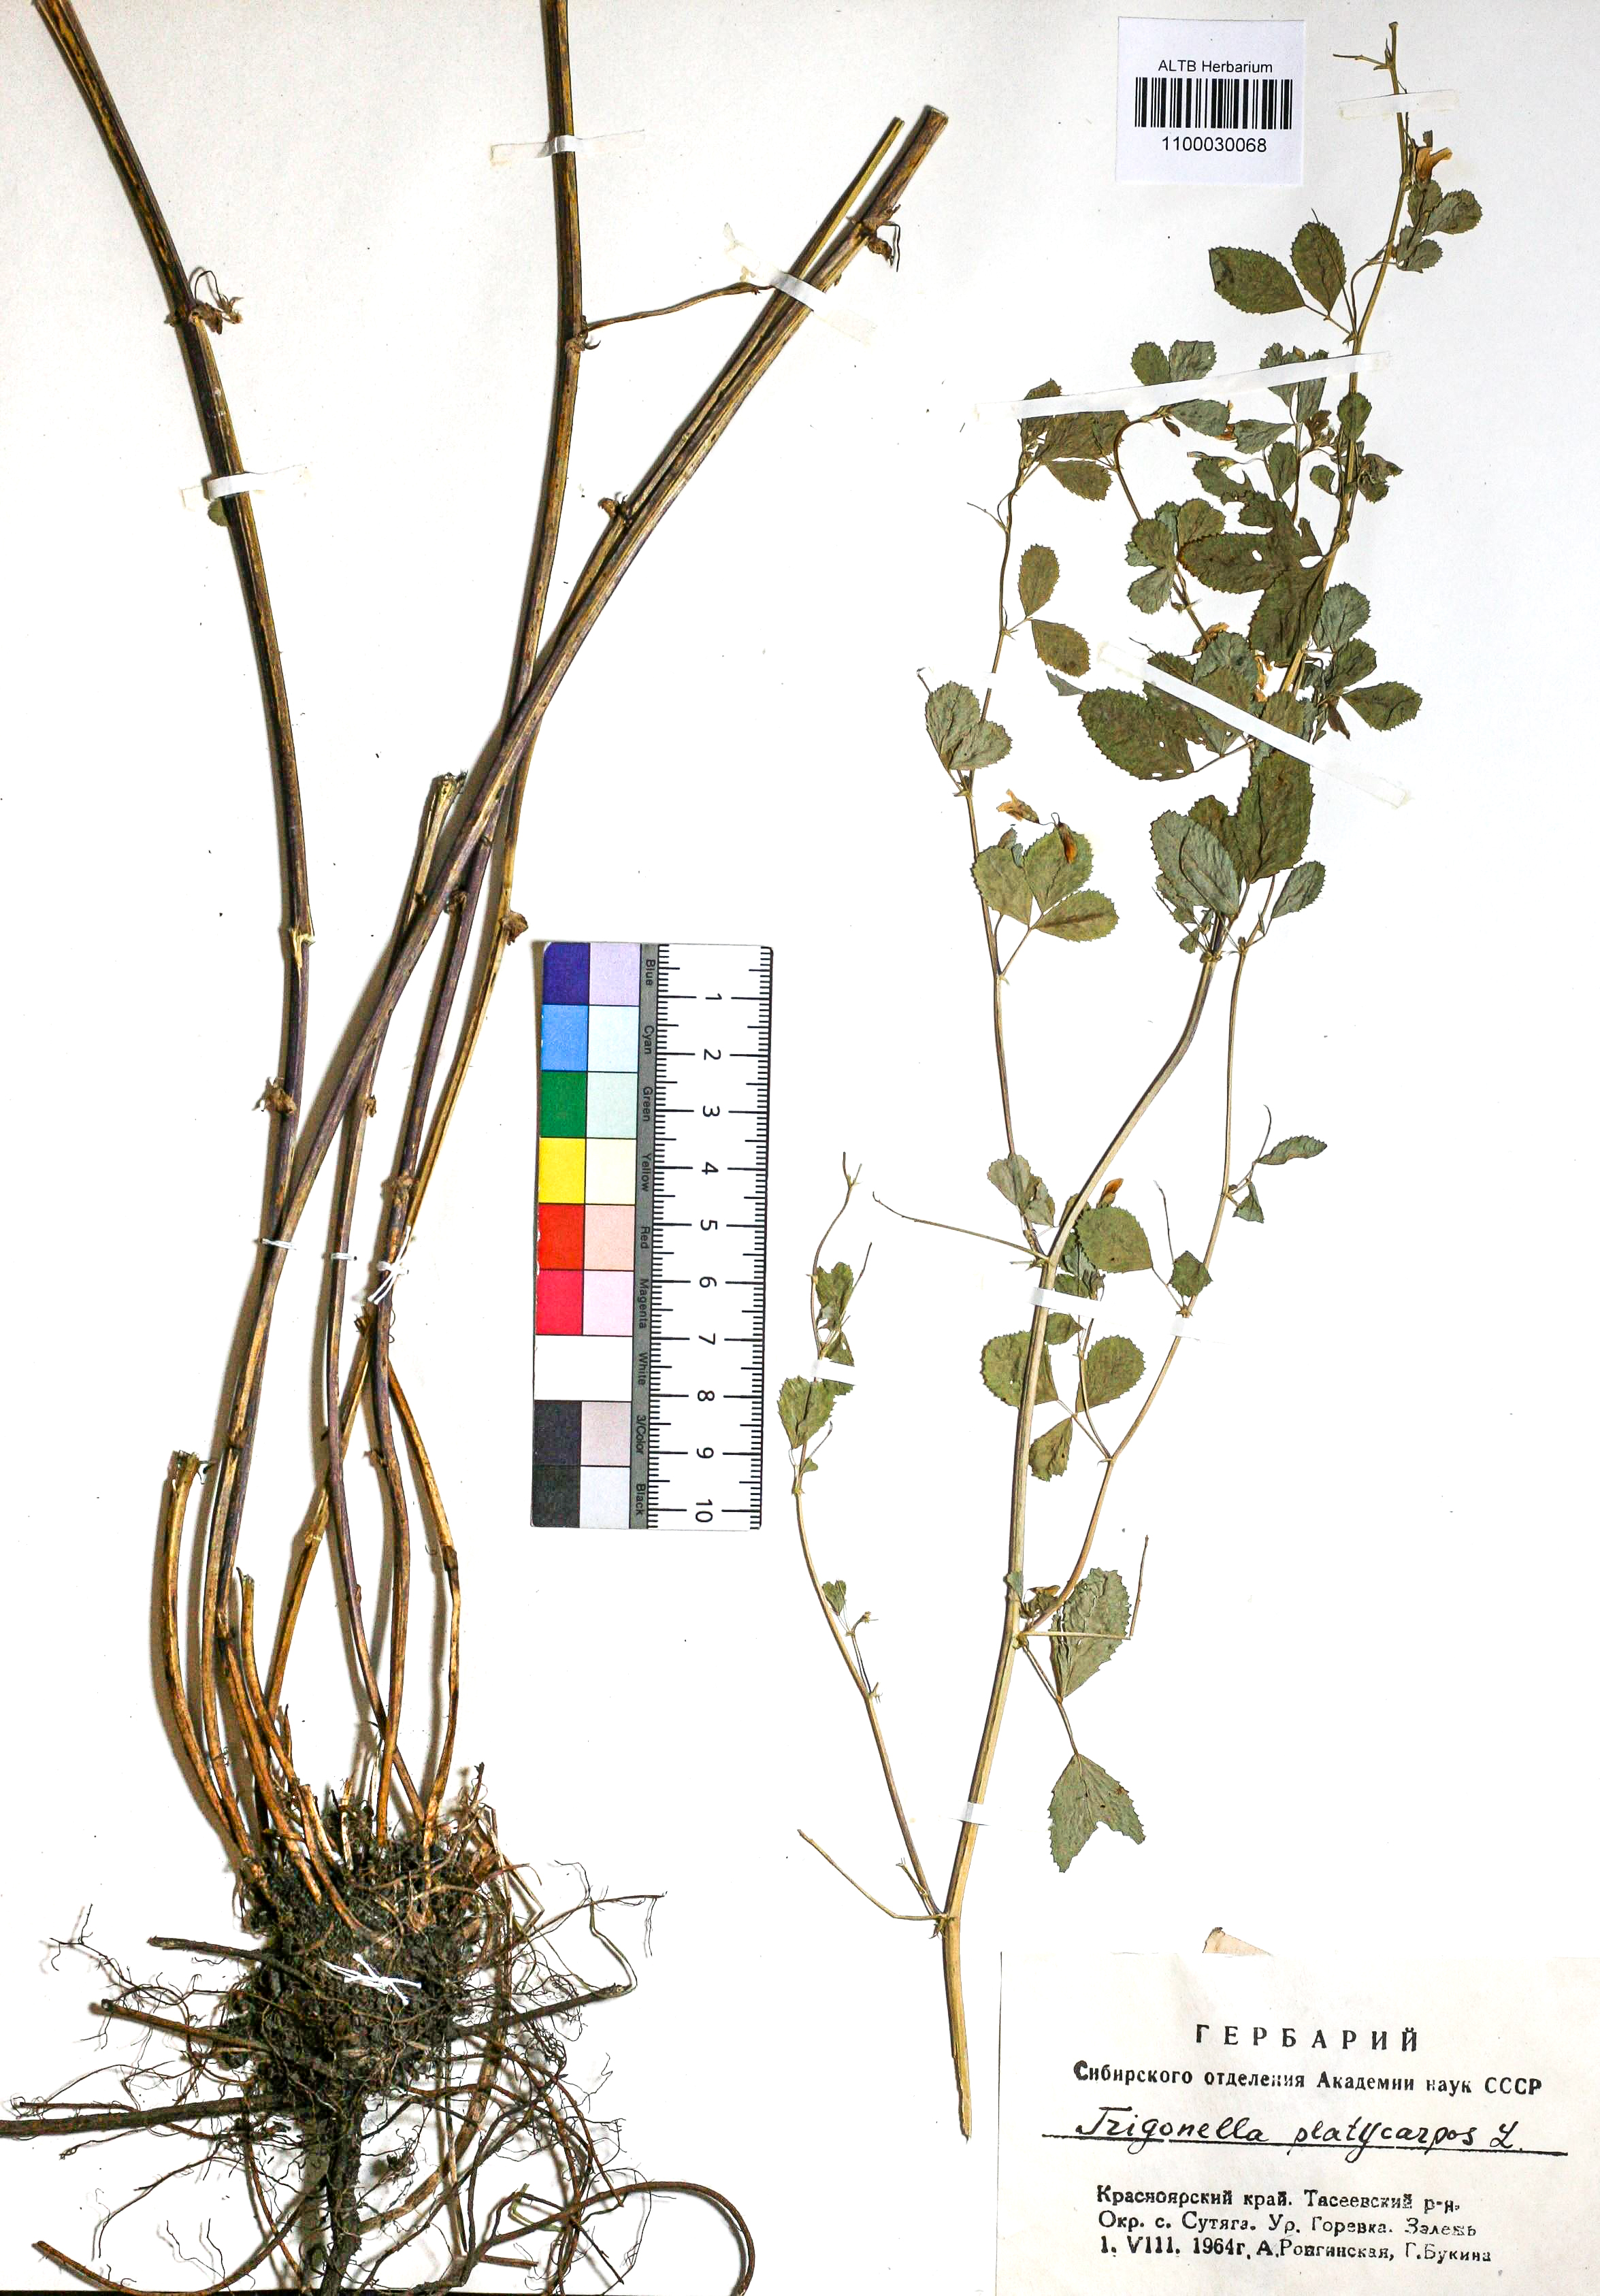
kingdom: Plantae
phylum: Tracheophyta
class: Magnoliopsida
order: Fabales
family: Fabaceae
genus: Medicago
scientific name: Medicago platycarpos
